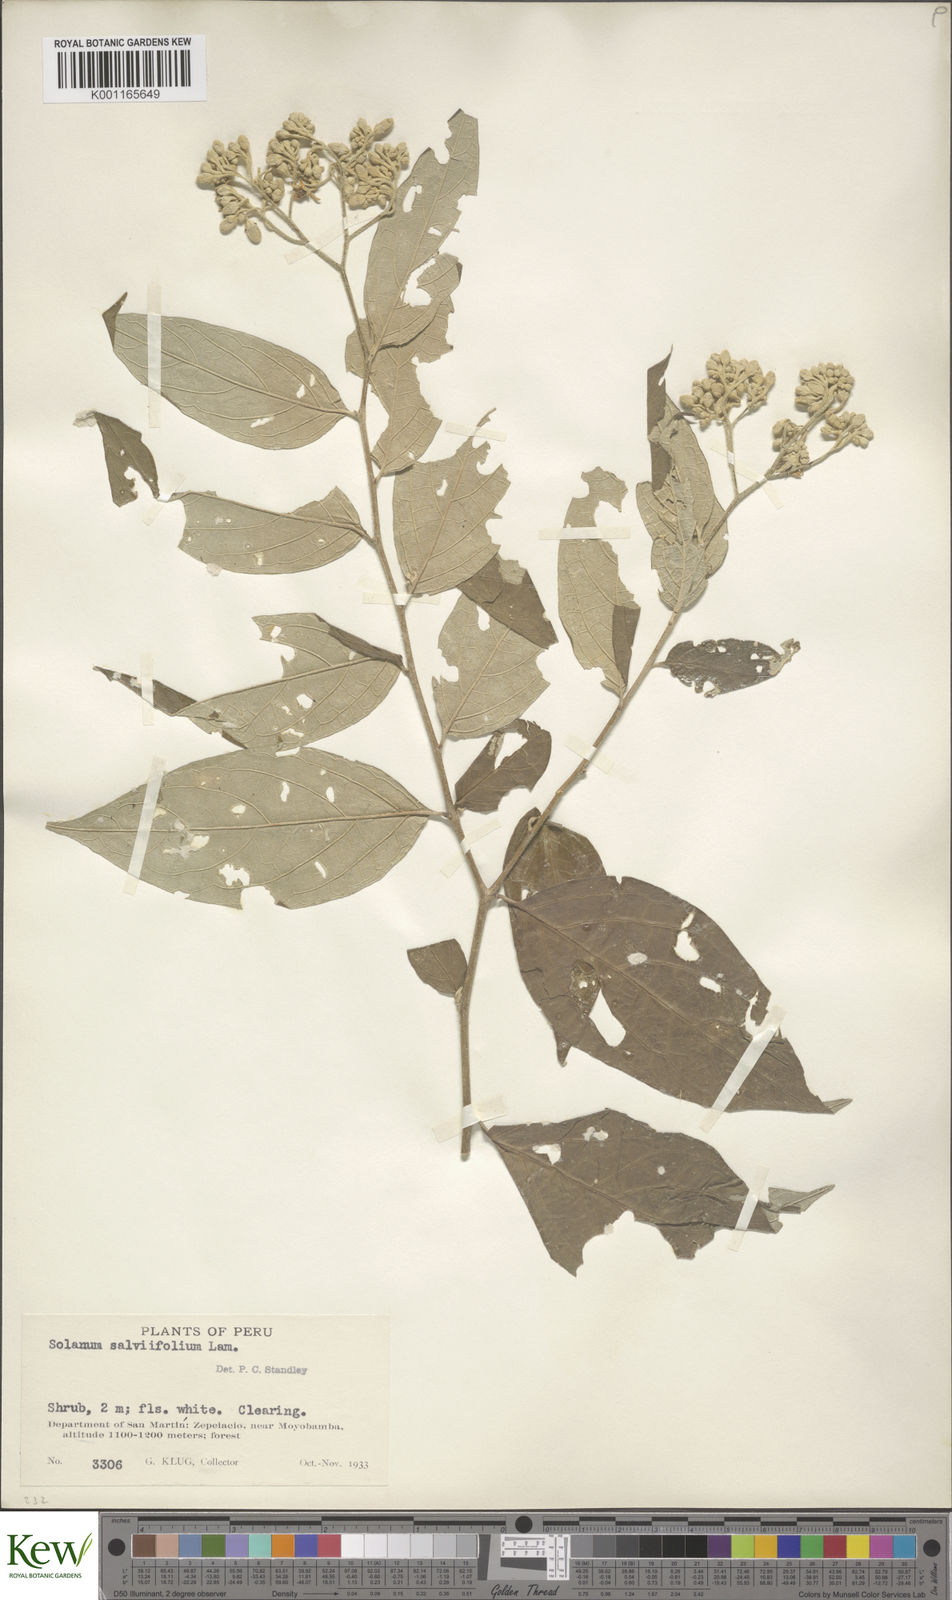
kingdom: Plantae
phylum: Tracheophyta
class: Magnoliopsida
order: Solanales
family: Solanaceae
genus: Solanum
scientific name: Solanum schlechtendalianum
